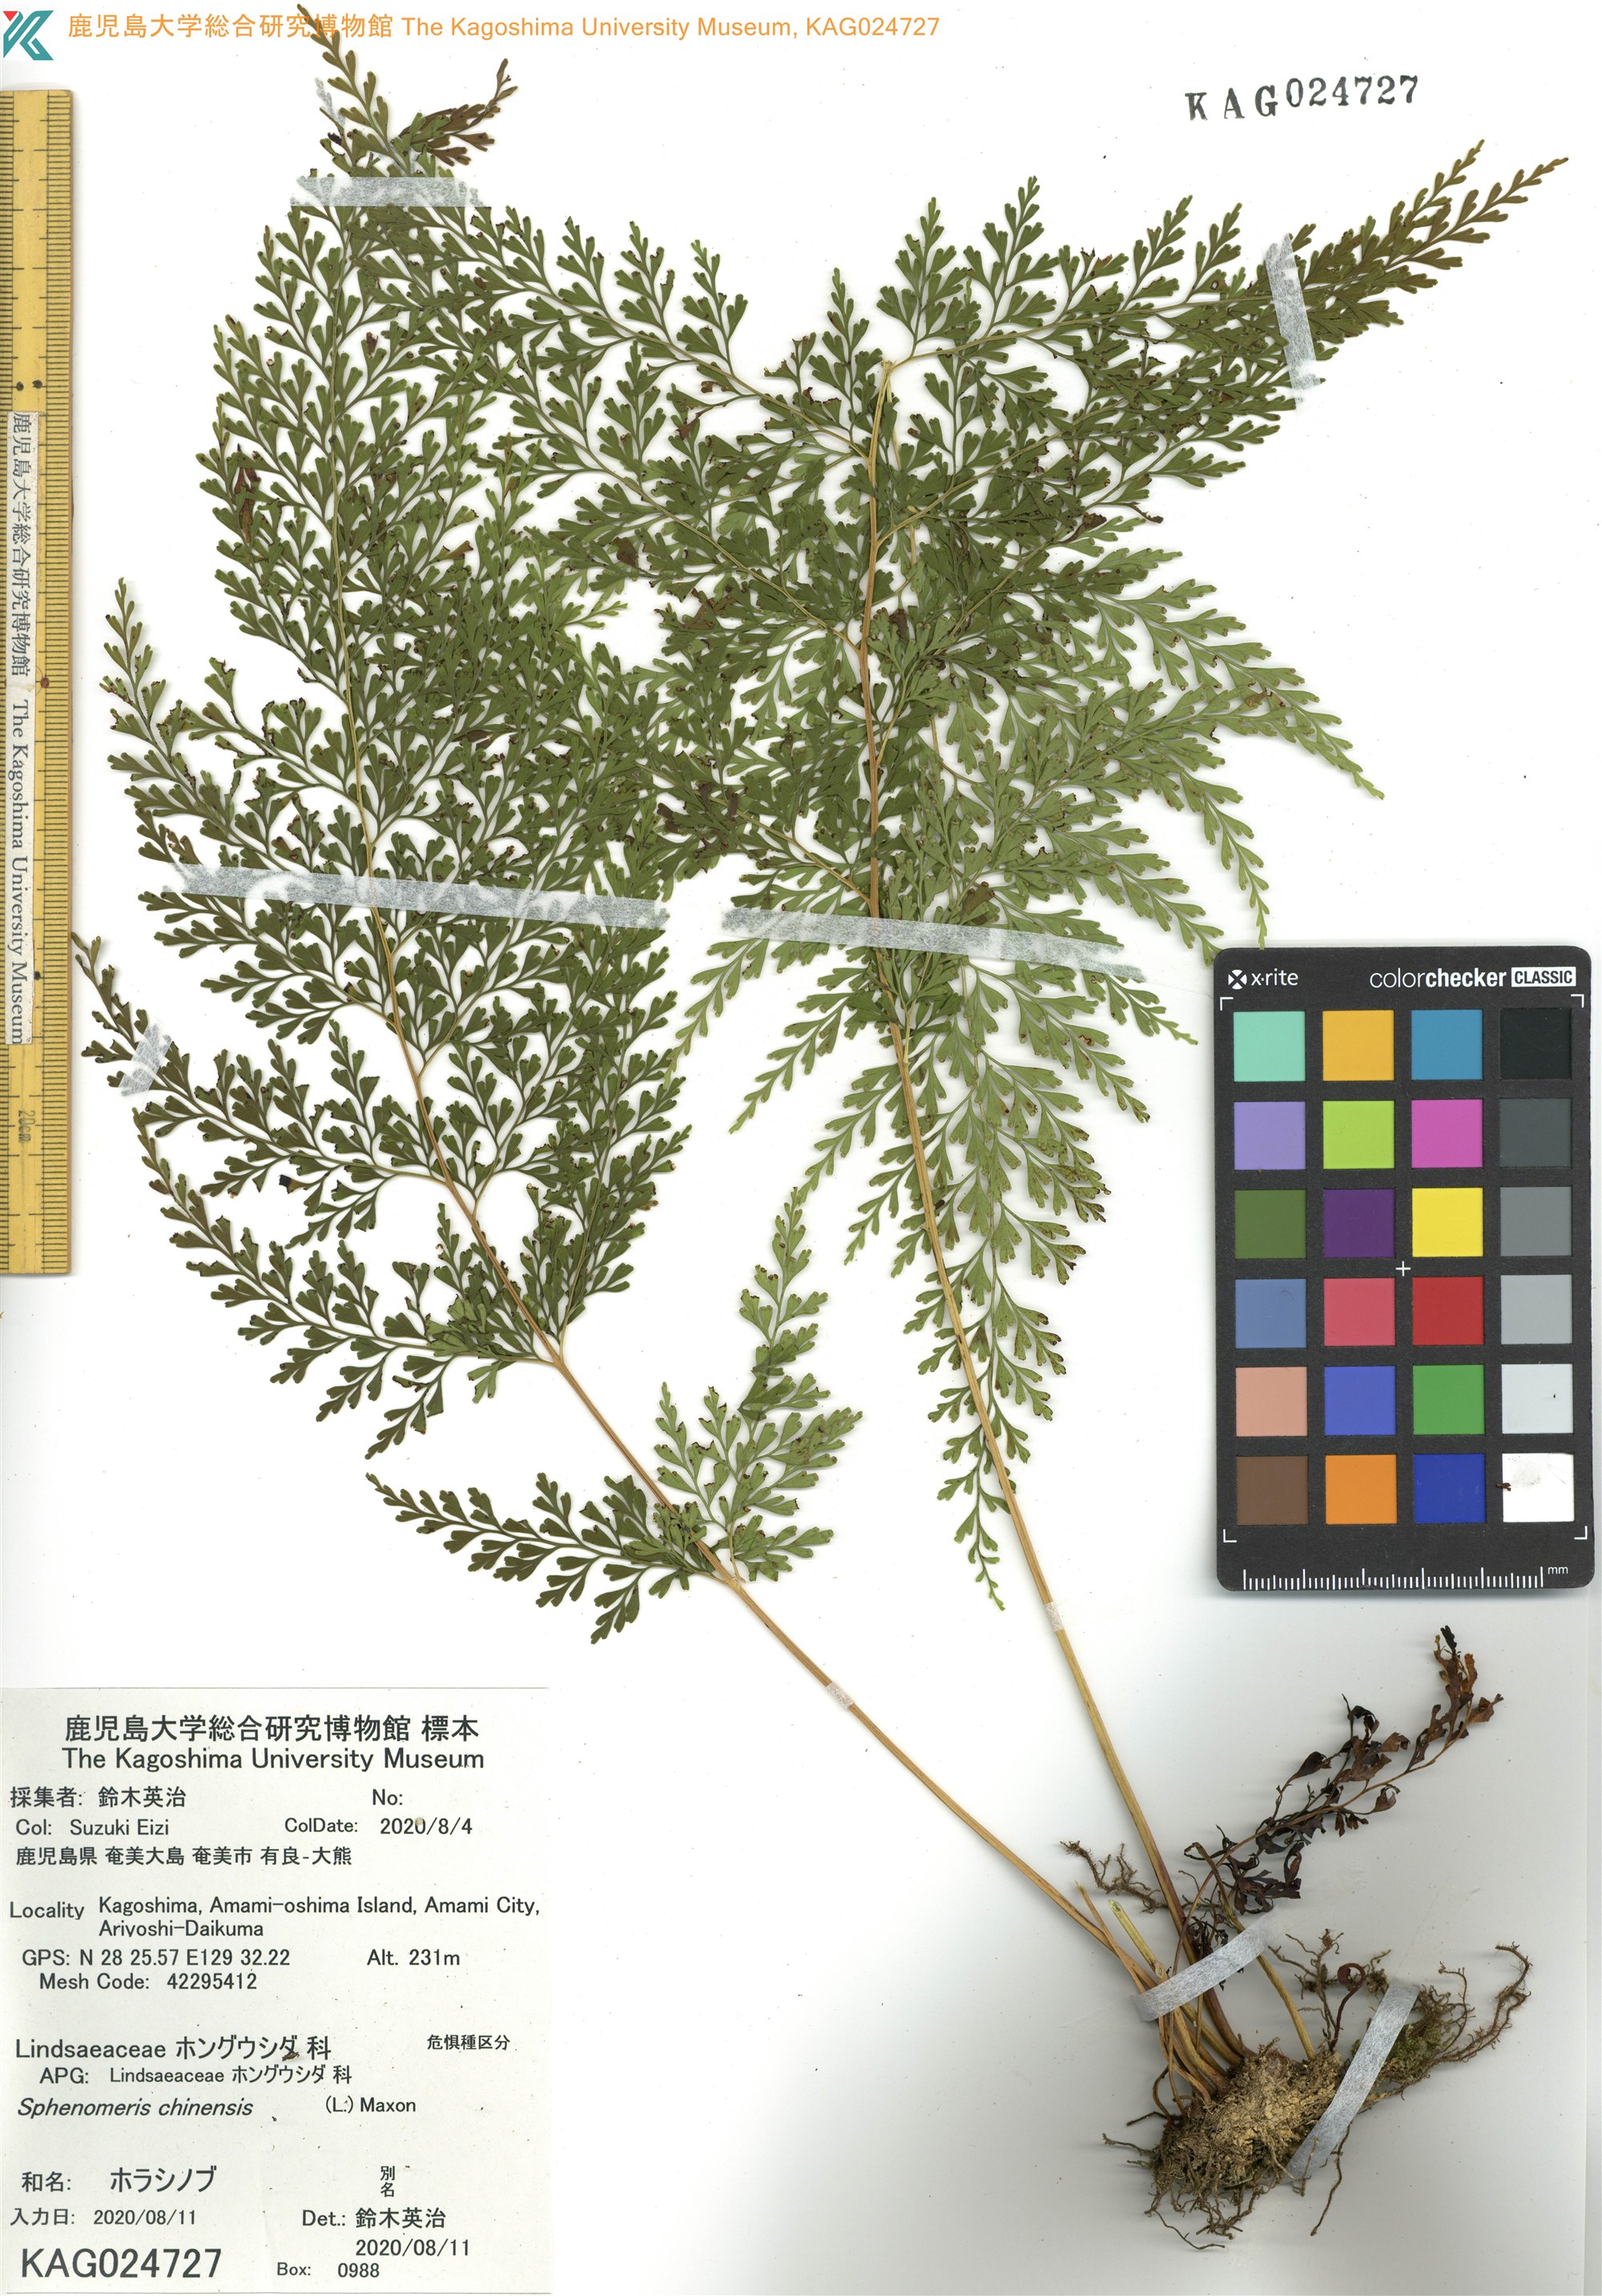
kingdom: Plantae
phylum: Tracheophyta
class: Polypodiopsida
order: Polypodiales
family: Lindsaeaceae
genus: Odontosoria
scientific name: Odontosoria chinensis
